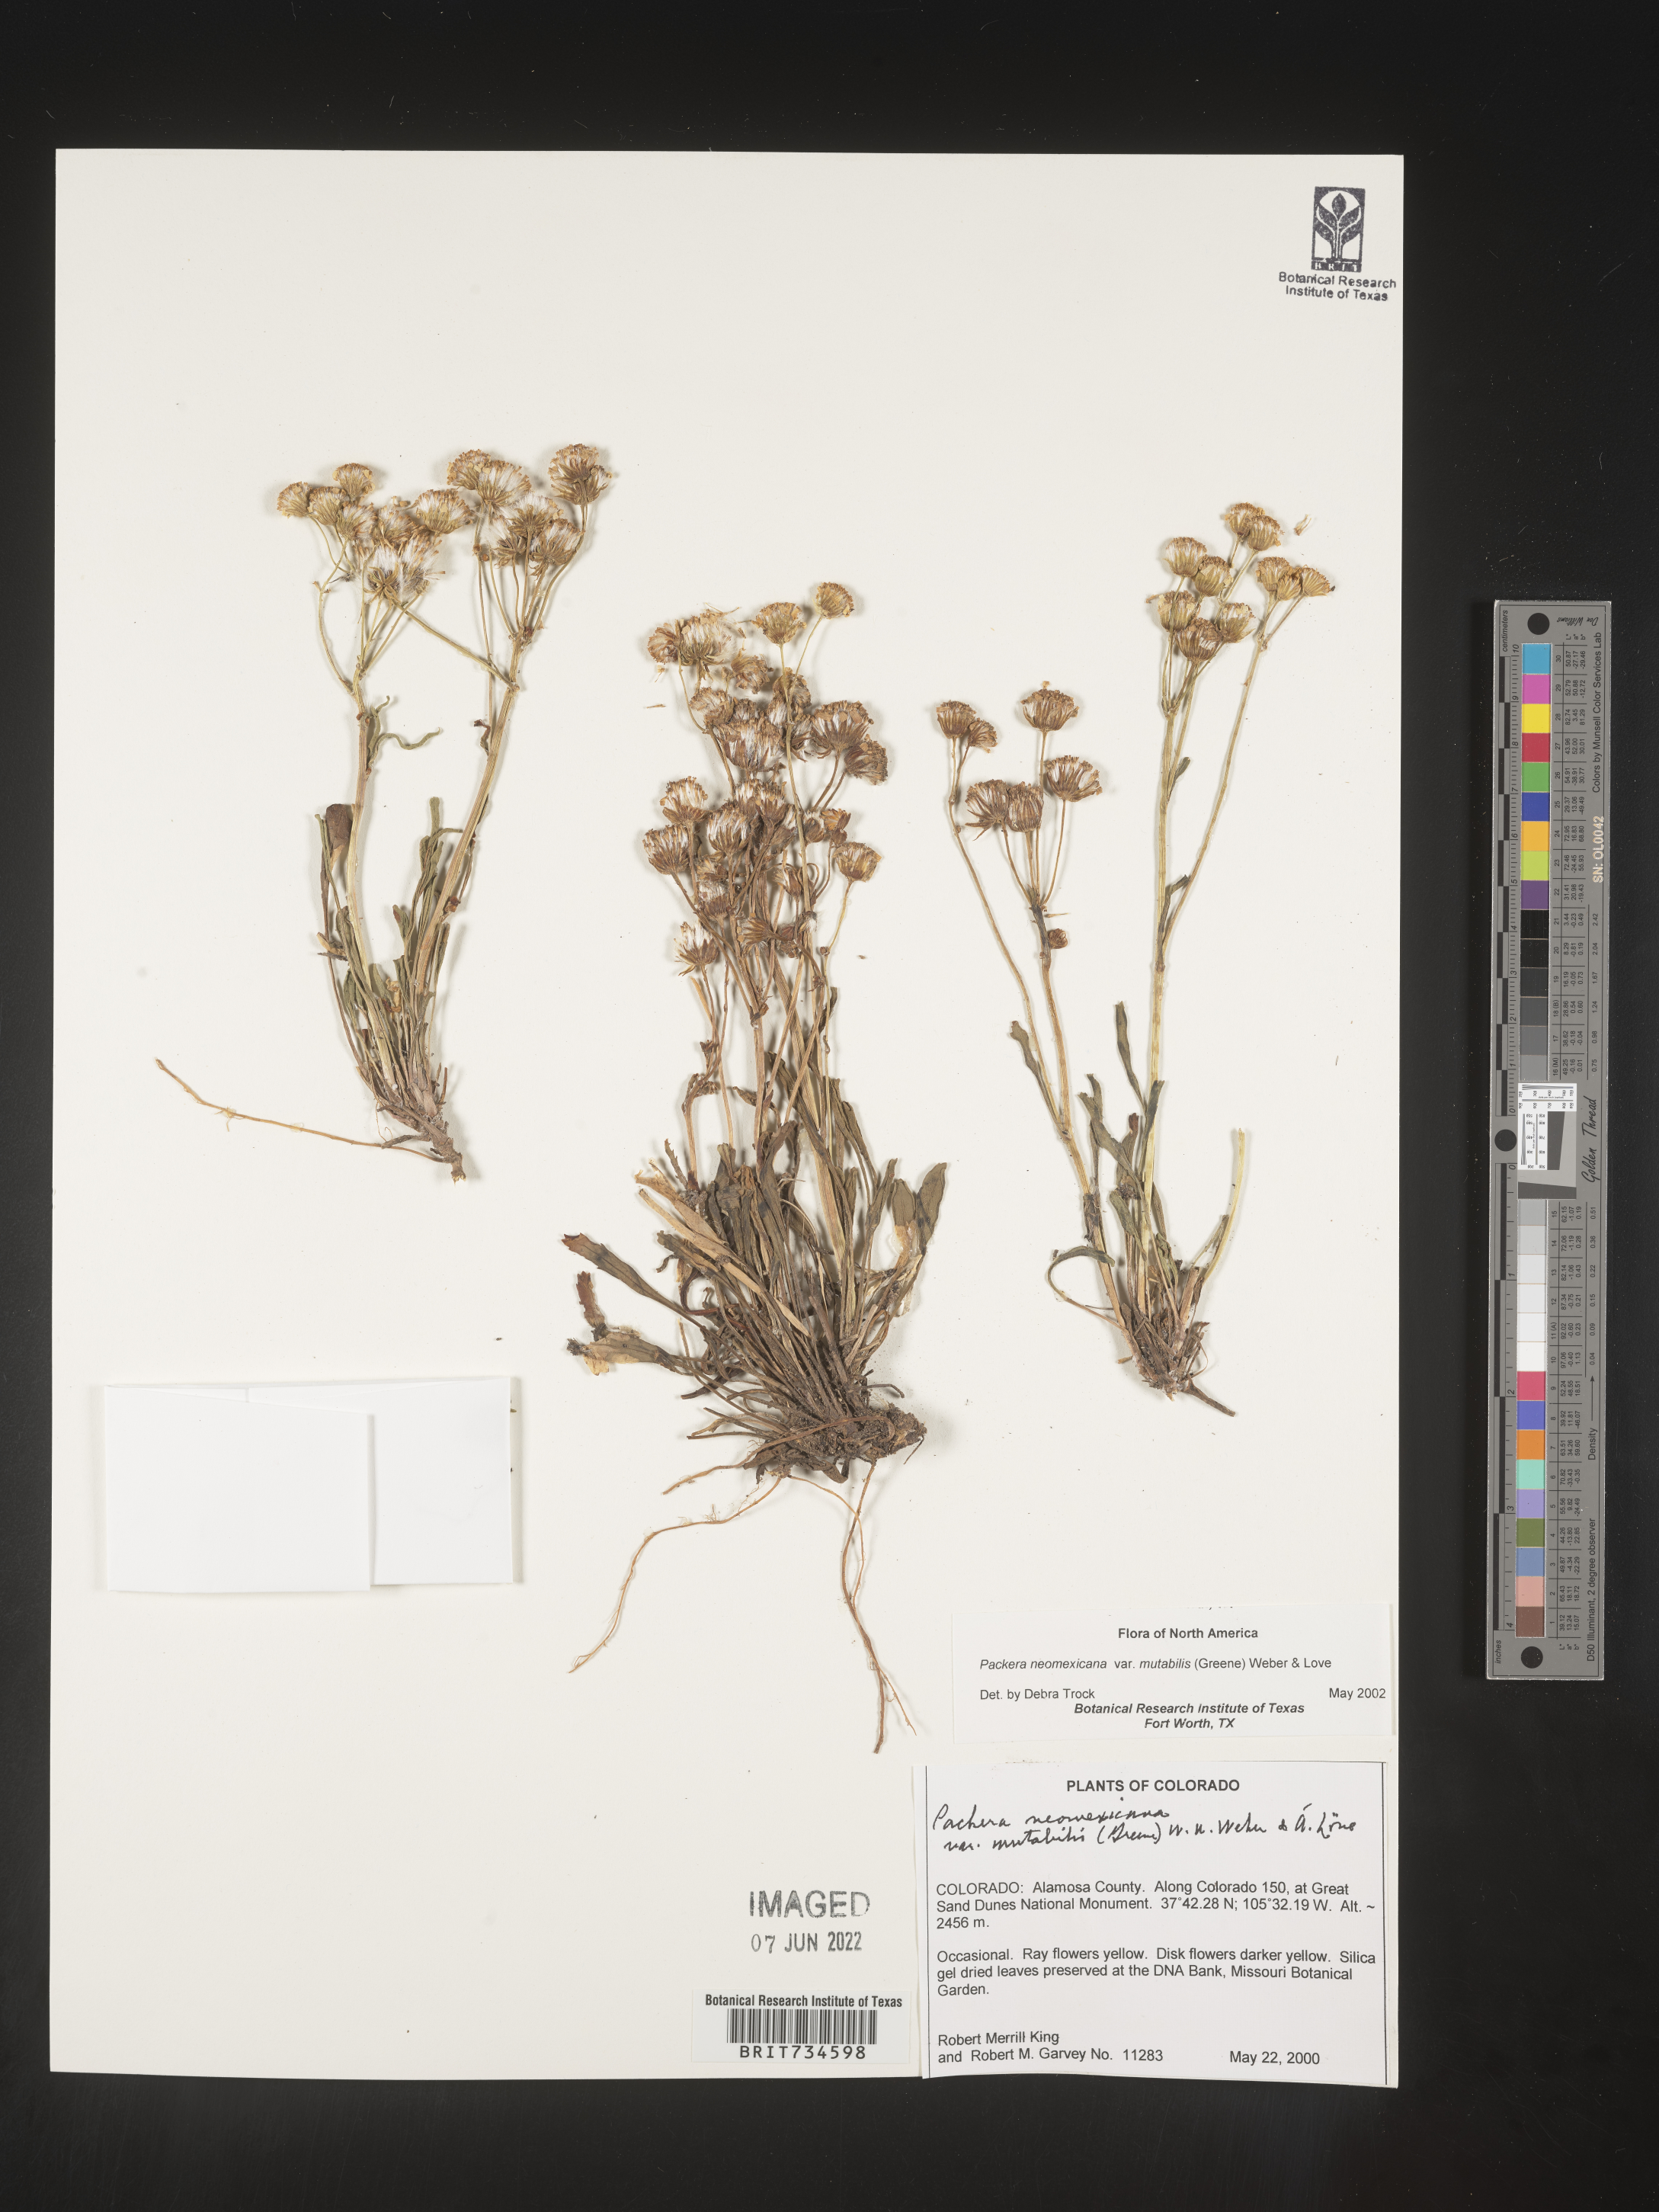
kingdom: Plantae
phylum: Tracheophyta
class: Magnoliopsida
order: Asterales
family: Asteraceae
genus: Packera
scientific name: Packera neomexicana
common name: New mexico butterweed
